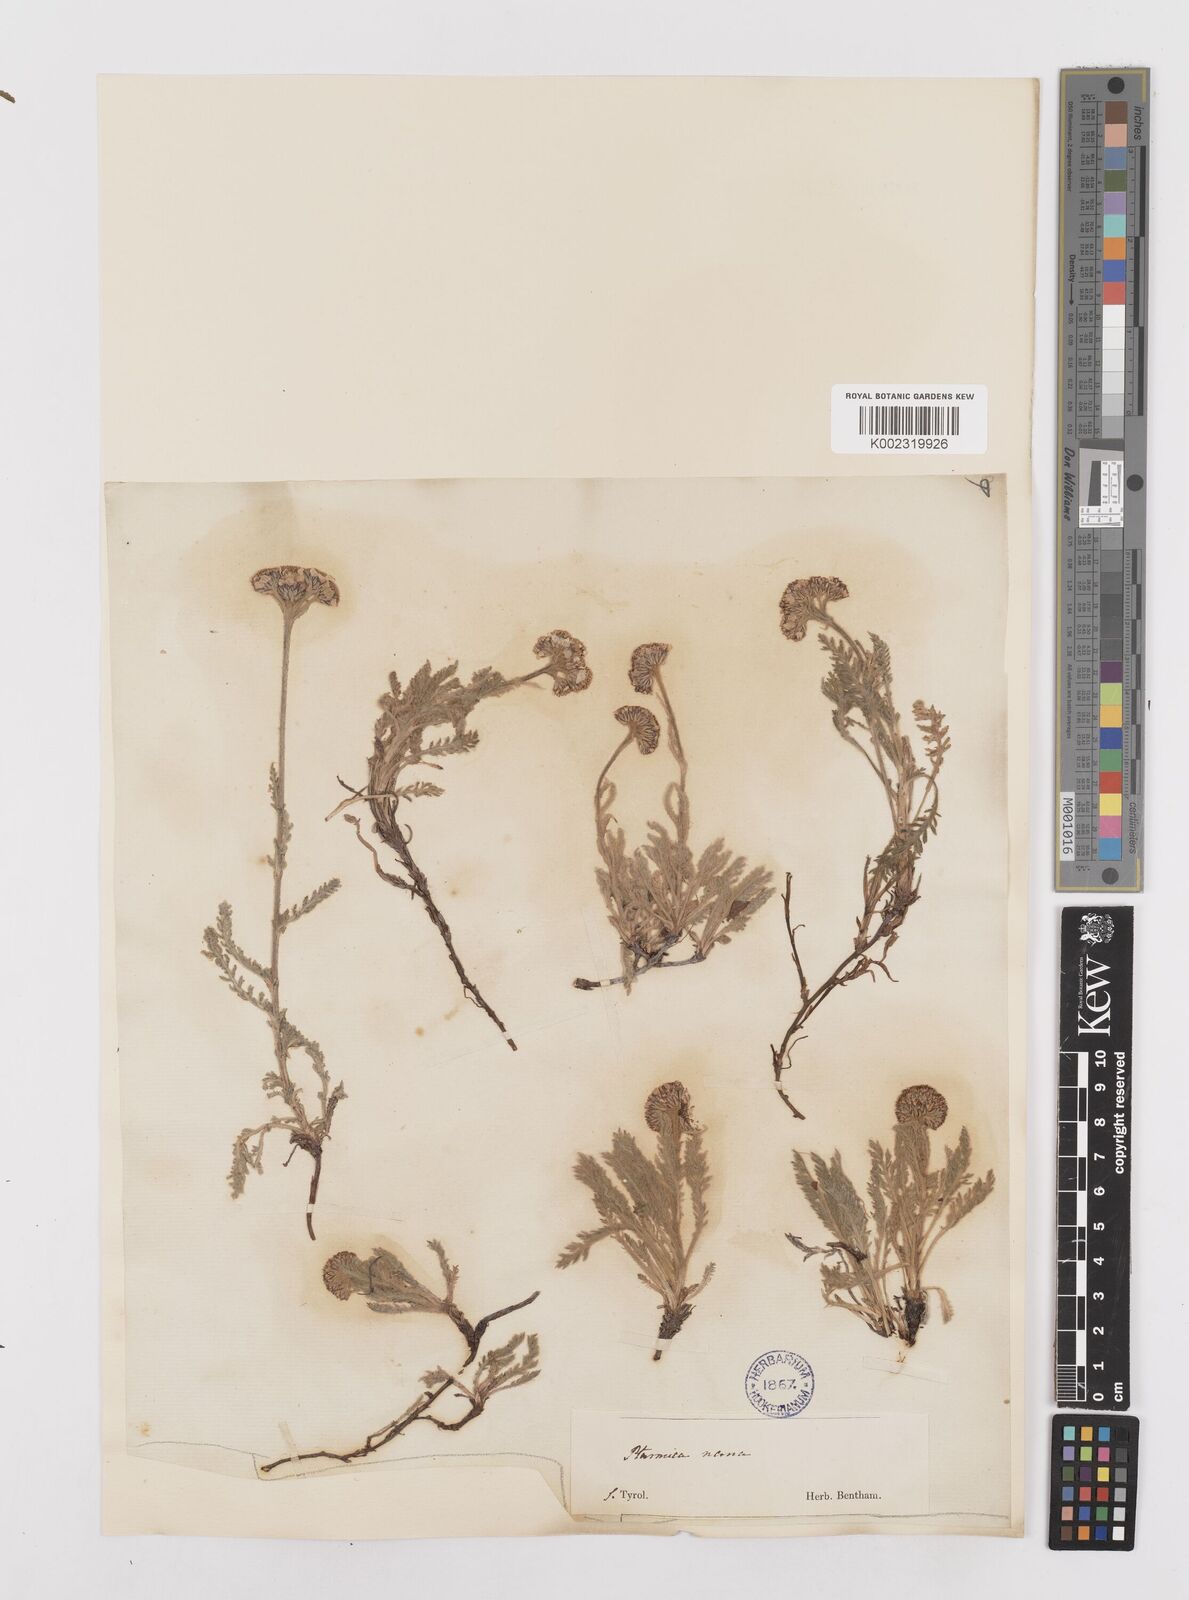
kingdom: Plantae
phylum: Tracheophyta
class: Magnoliopsida
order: Asterales
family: Asteraceae
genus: Achillea
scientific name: Achillea
